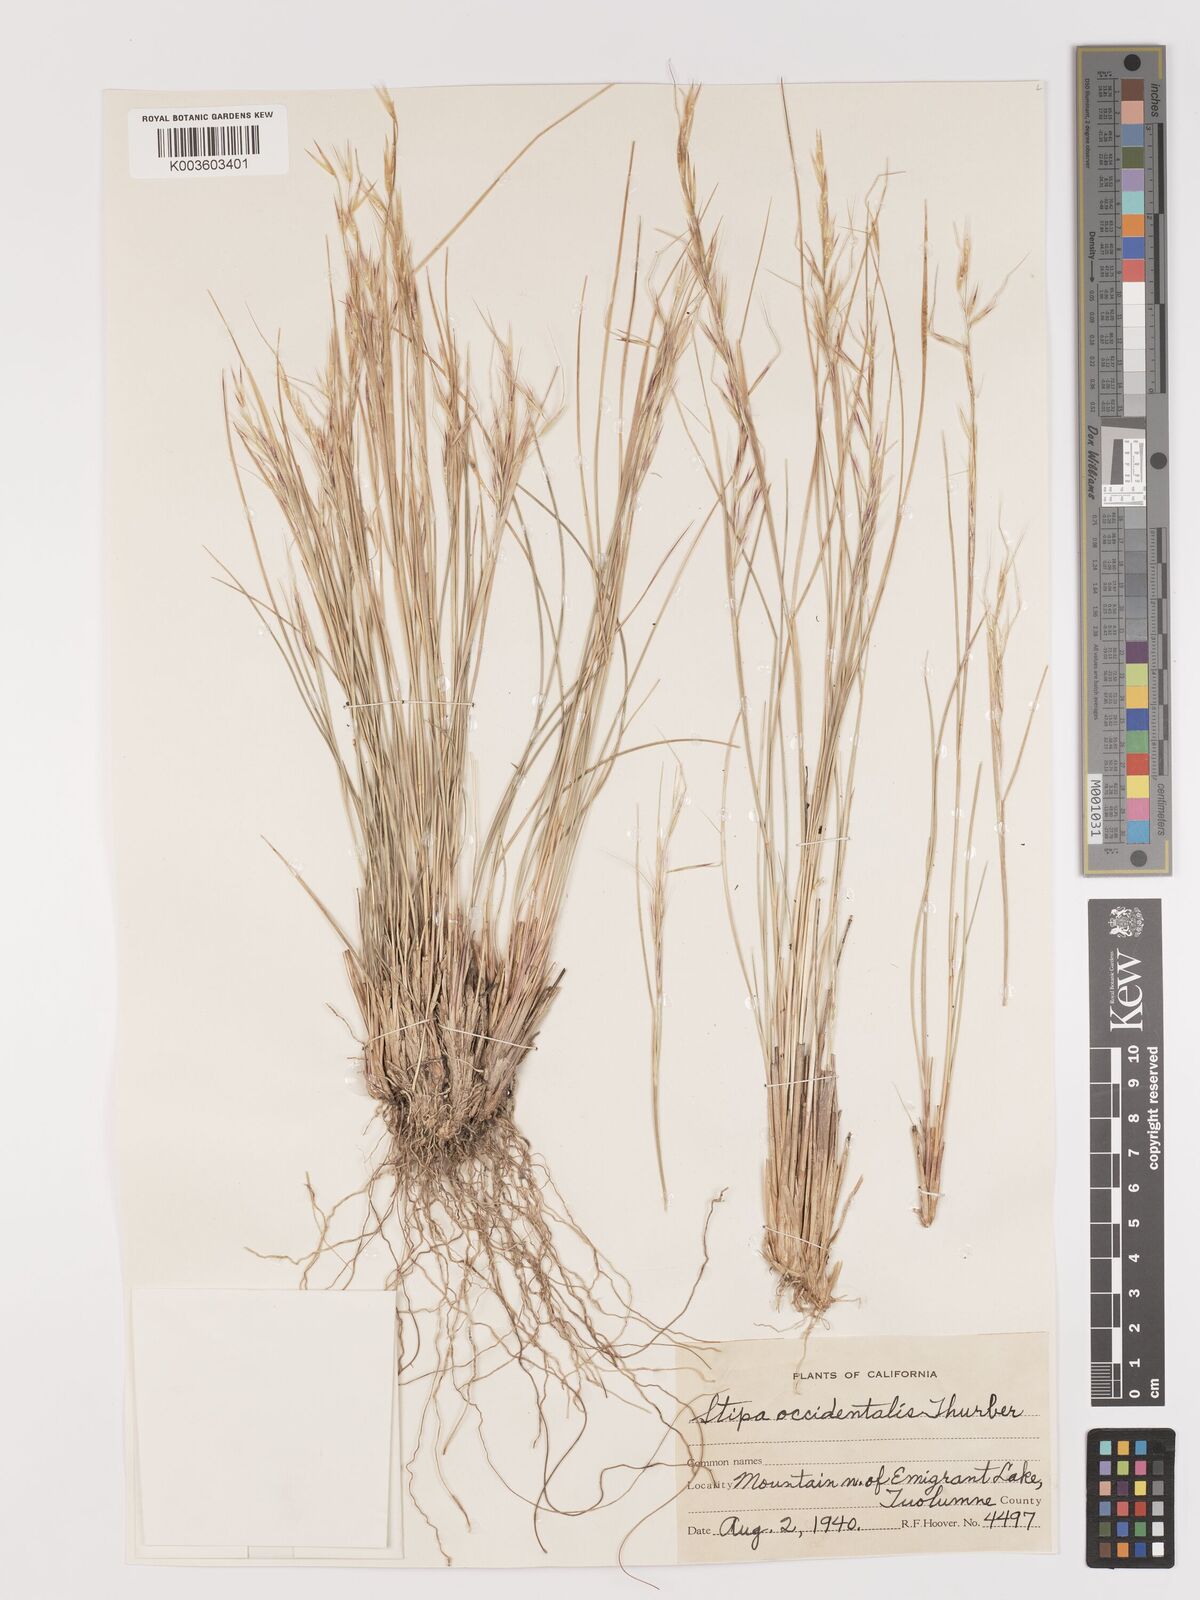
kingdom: Plantae
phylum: Tracheophyta
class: Liliopsida
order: Poales
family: Poaceae
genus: Eriocoma
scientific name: Eriocoma thurberiana
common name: Thurber's needlegrass
